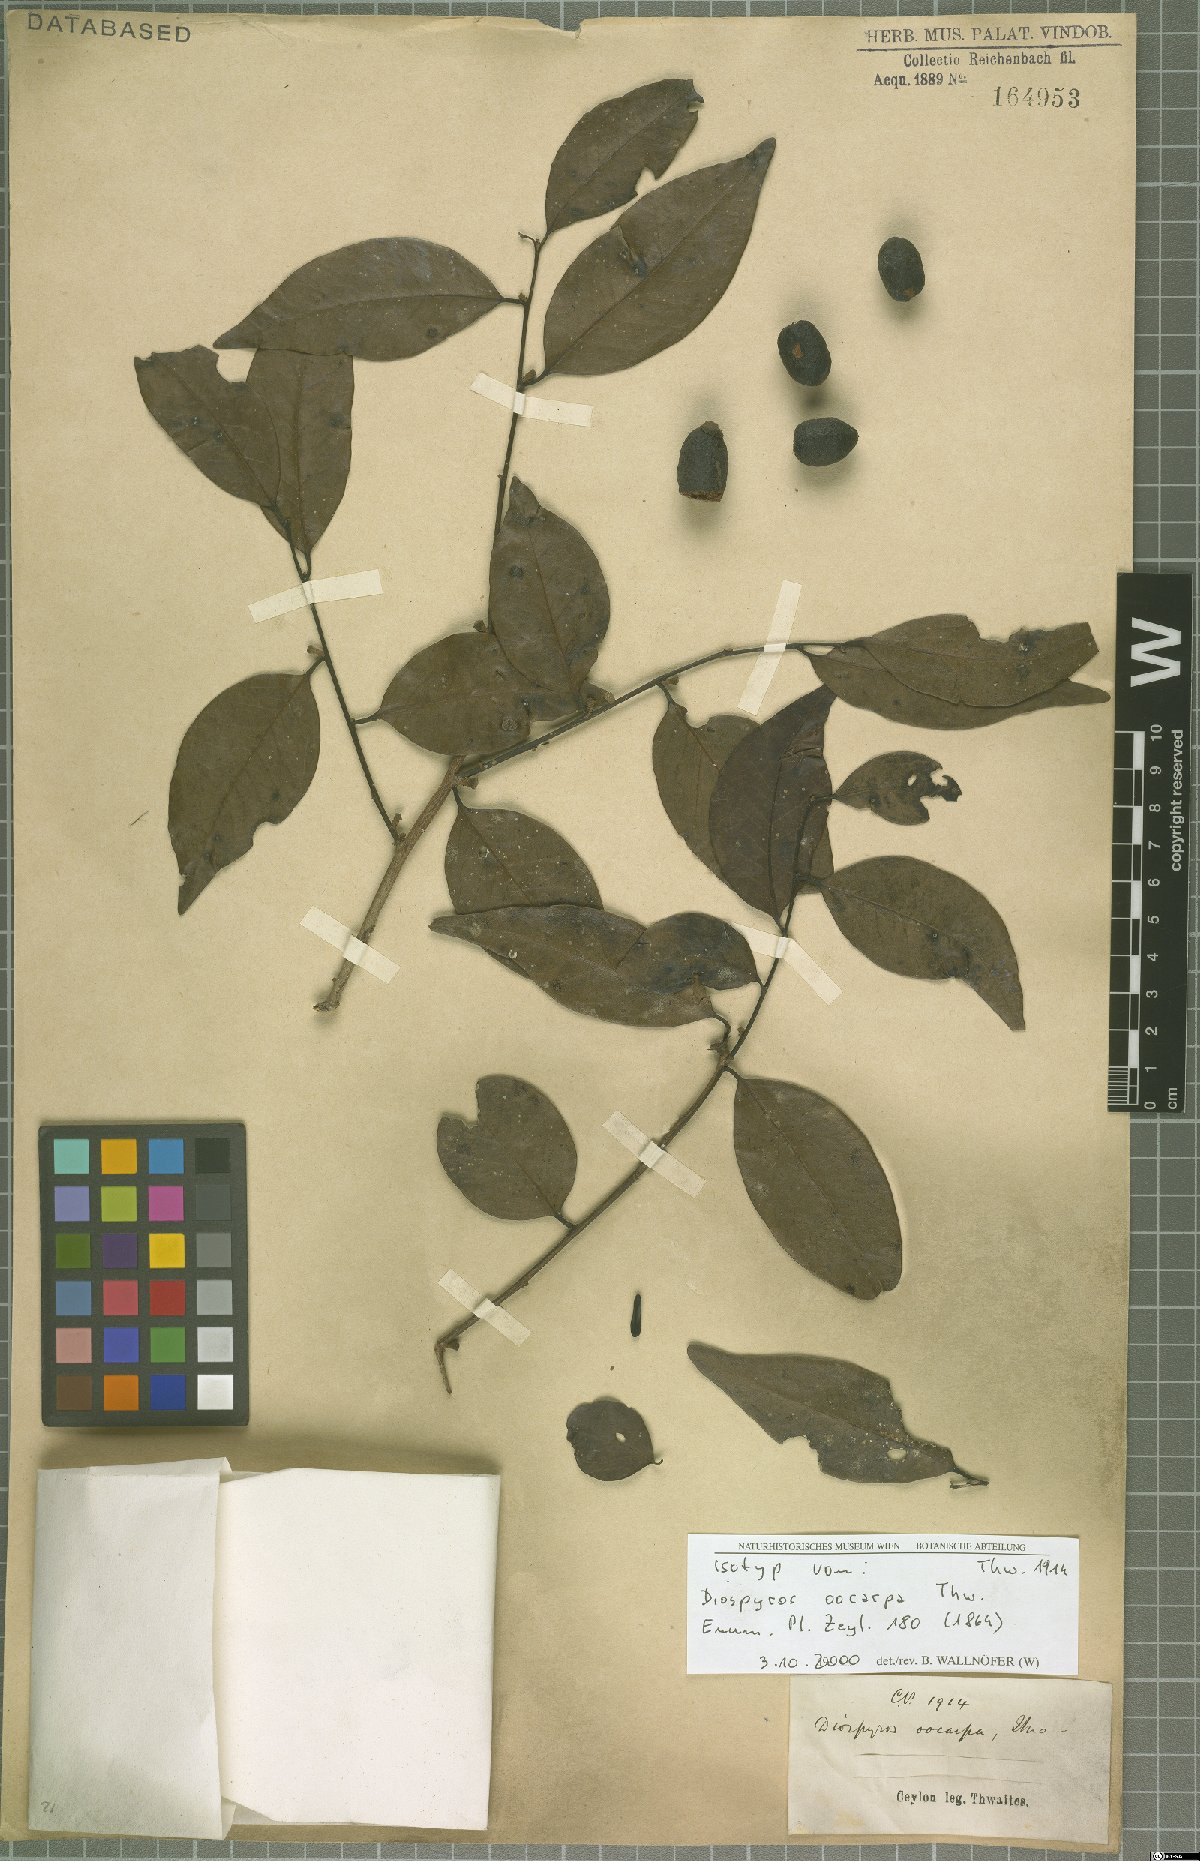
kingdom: Plantae
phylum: Tracheophyta
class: Magnoliopsida
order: Ericales
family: Ebenaceae
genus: Diospyros
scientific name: Diospyros oocarpa
